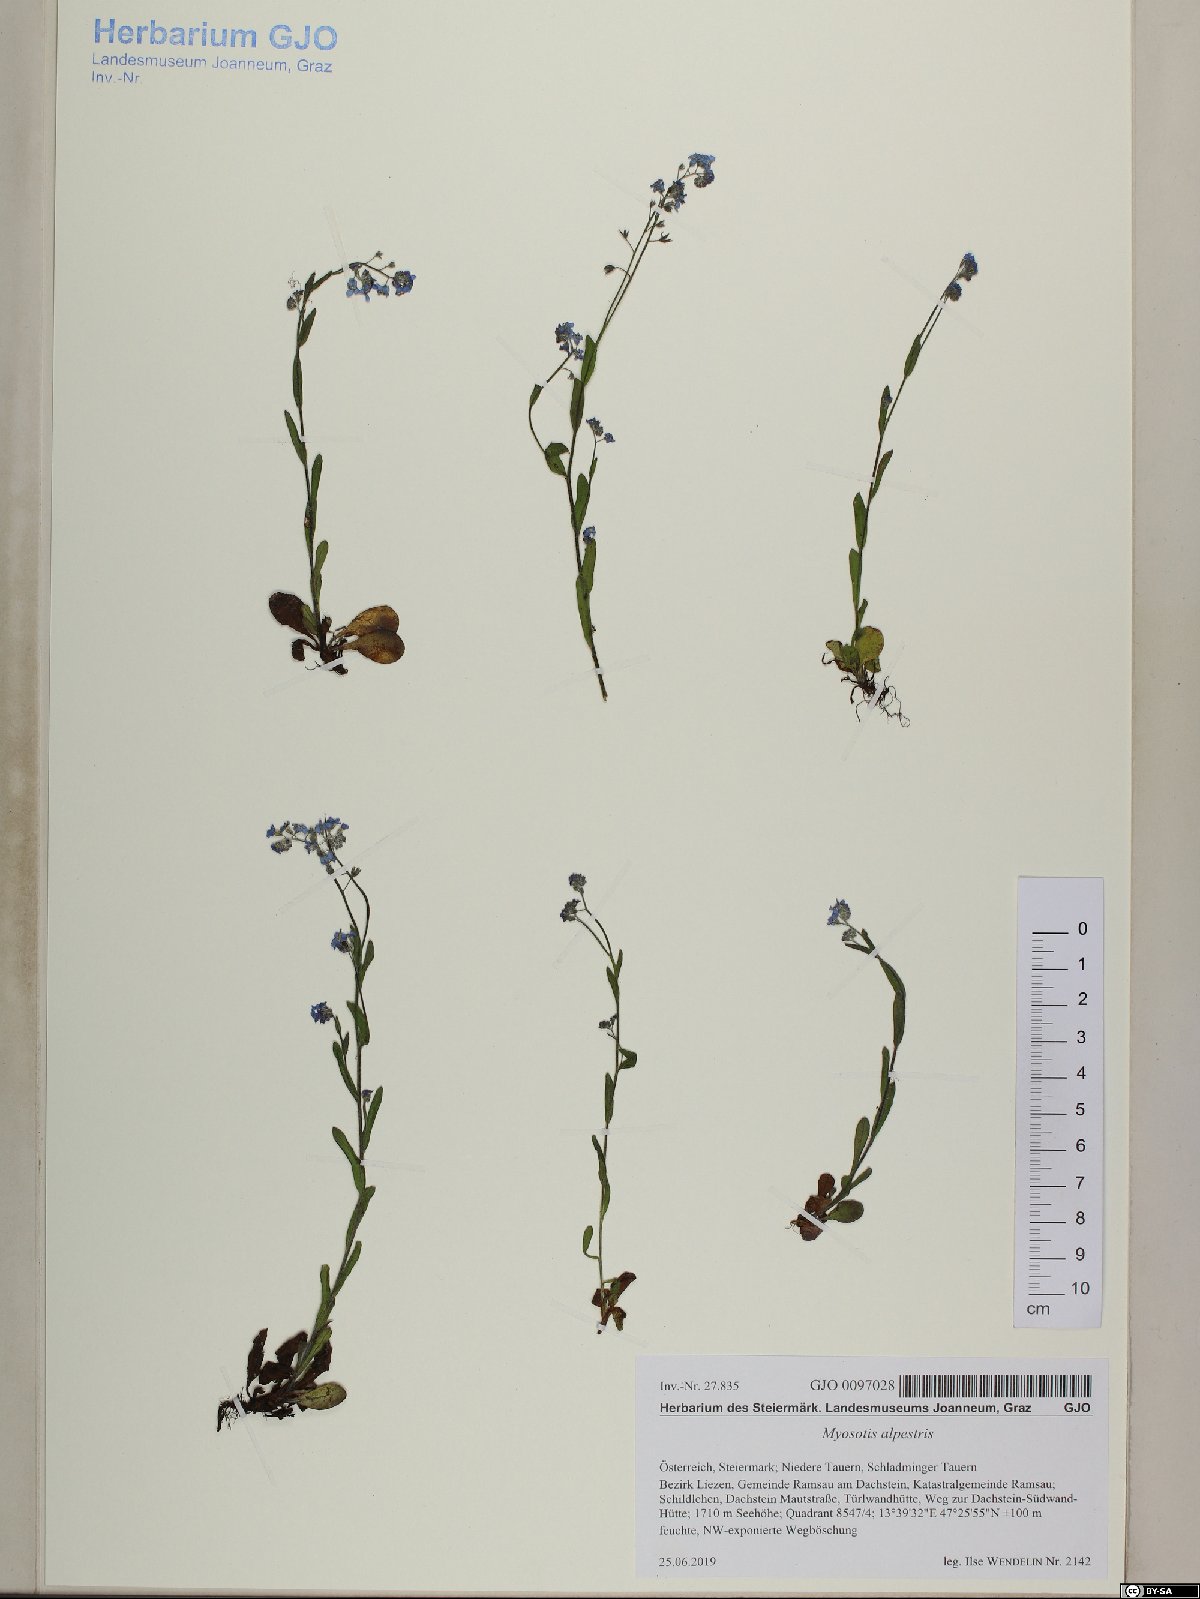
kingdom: Plantae
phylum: Tracheophyta
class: Magnoliopsida
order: Boraginales
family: Boraginaceae
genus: Myosotis
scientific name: Myosotis alpestris
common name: Alpine forget-me-not
